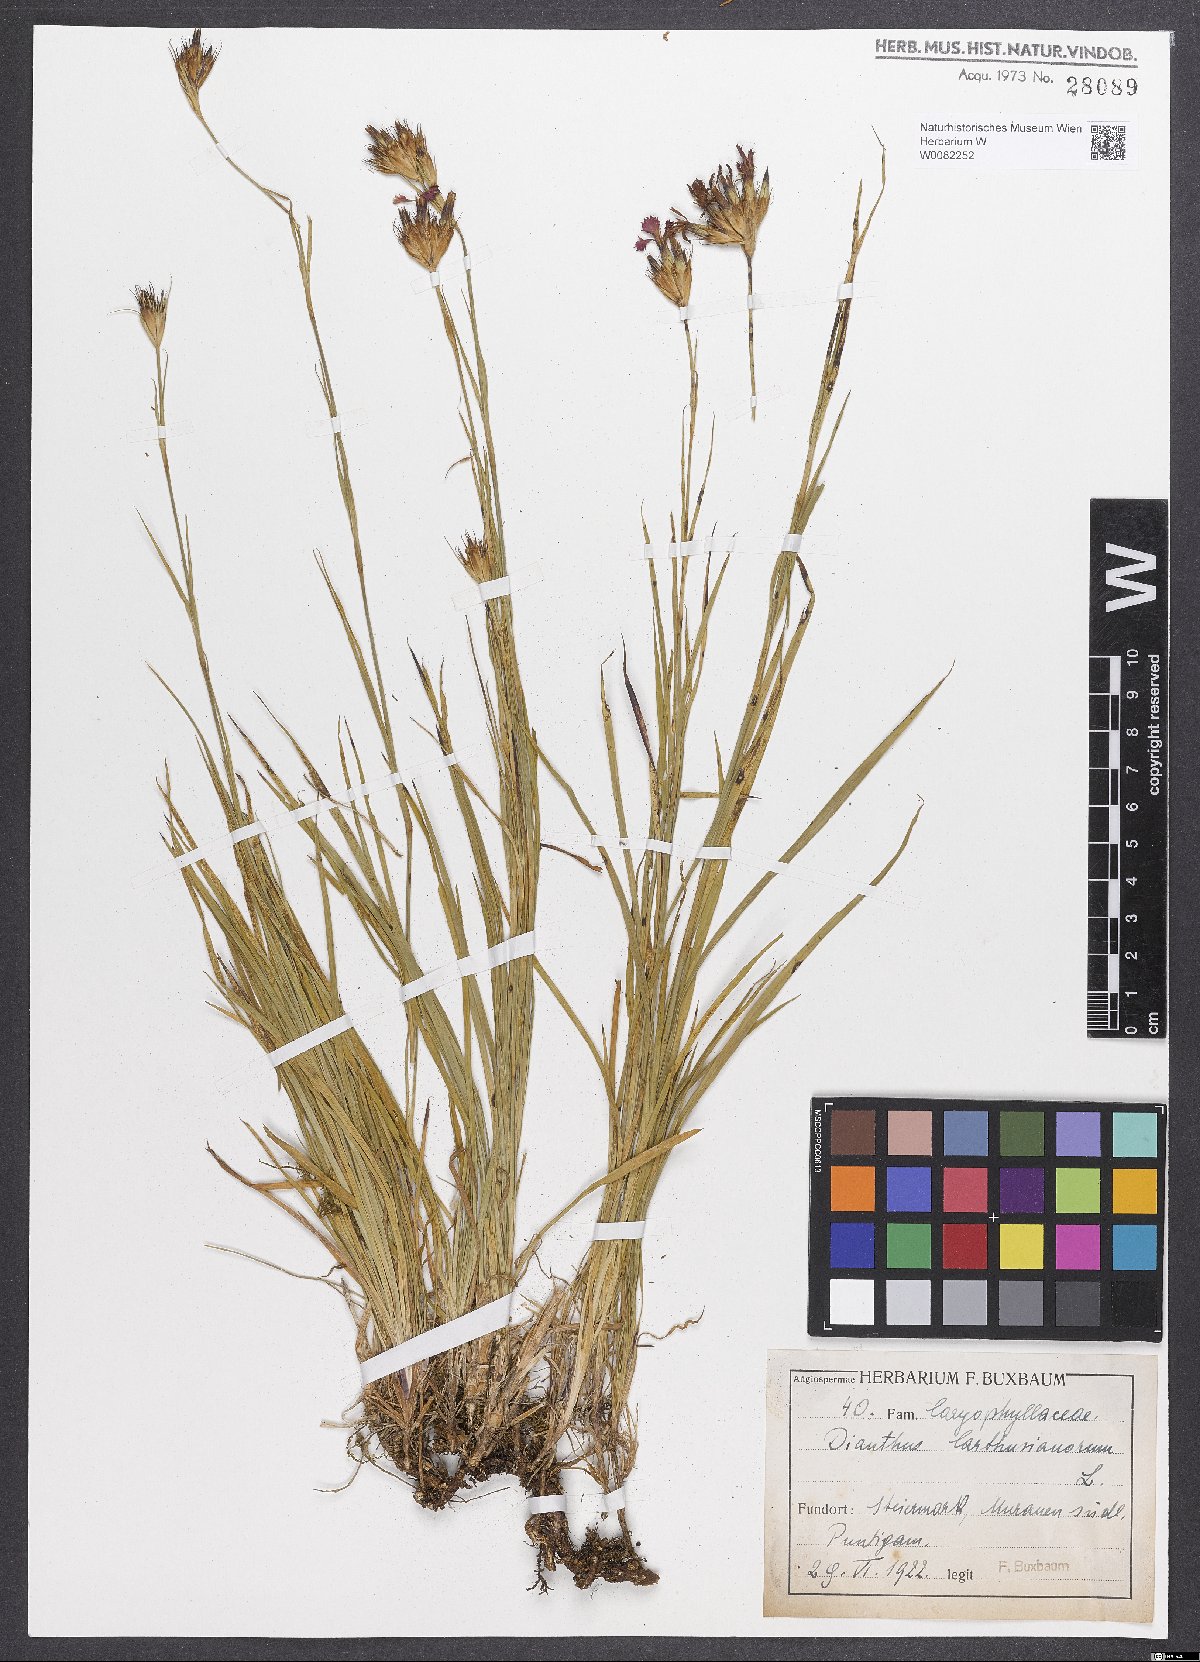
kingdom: Plantae
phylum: Tracheophyta
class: Magnoliopsida
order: Caryophyllales
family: Caryophyllaceae
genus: Dianthus
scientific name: Dianthus carthusianorum
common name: Carthusian pink
